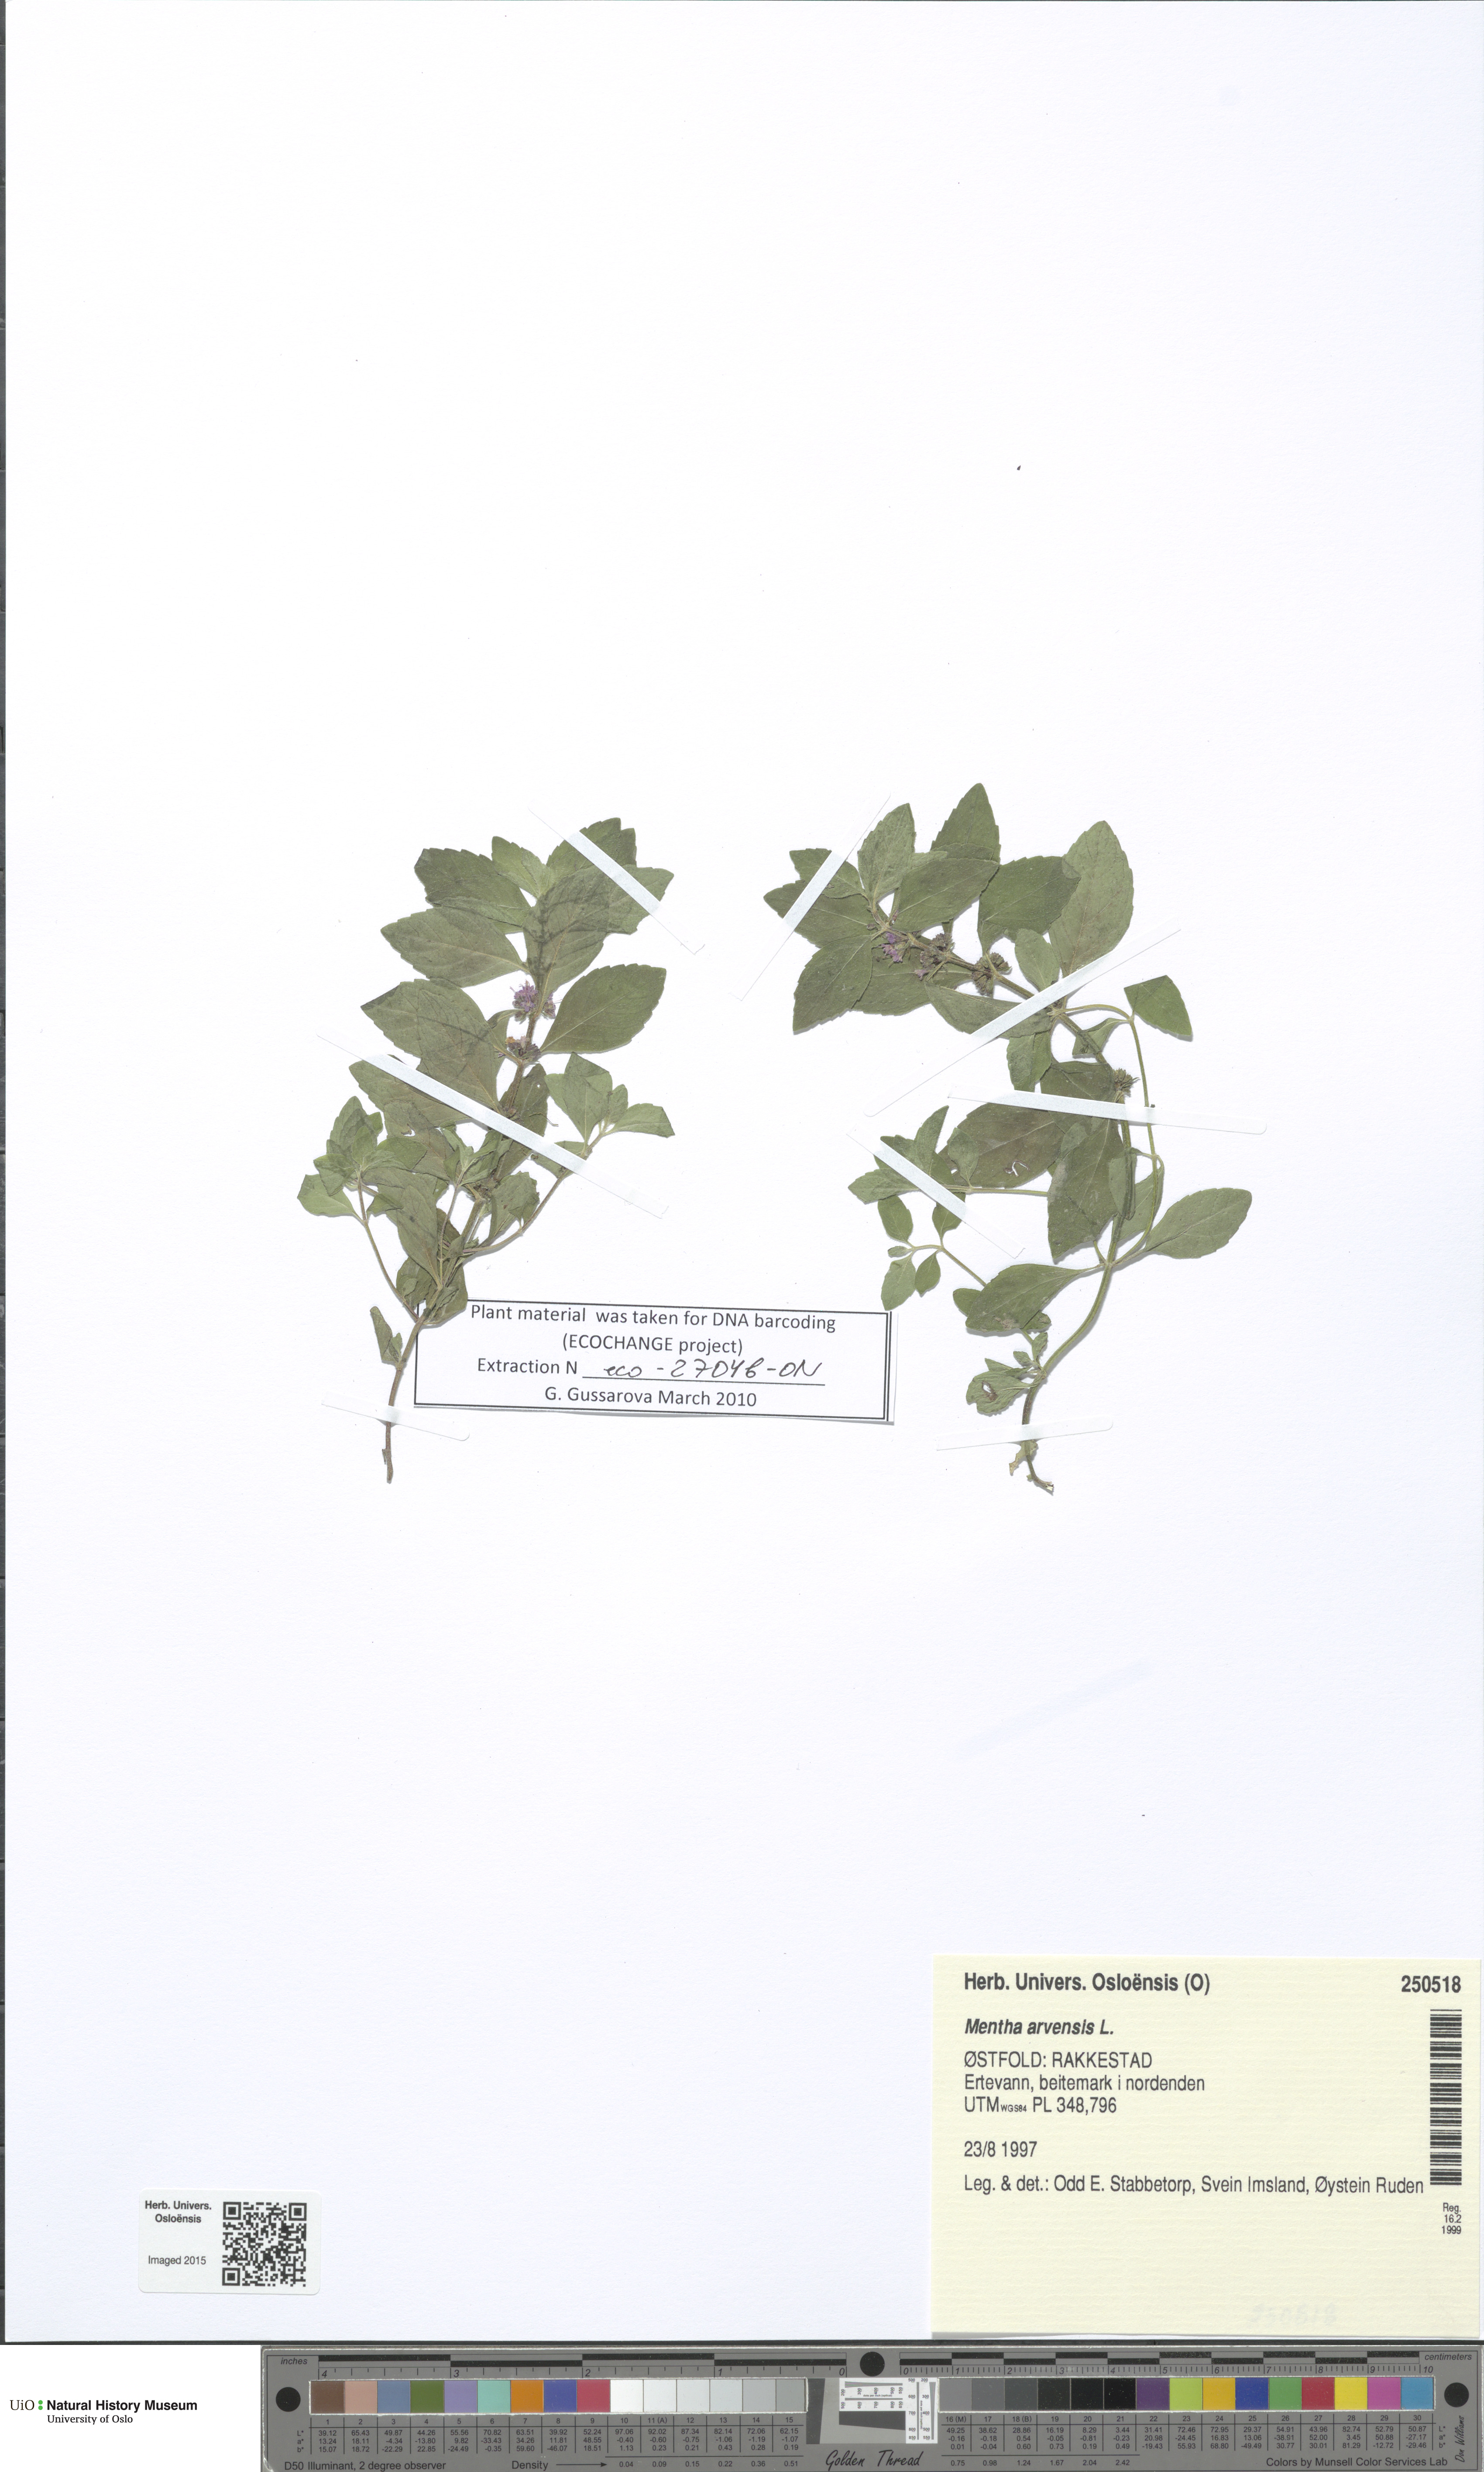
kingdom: Plantae
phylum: Tracheophyta
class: Magnoliopsida
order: Lamiales
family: Lamiaceae
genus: Mentha
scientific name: Mentha arvensis
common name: Corn mint
